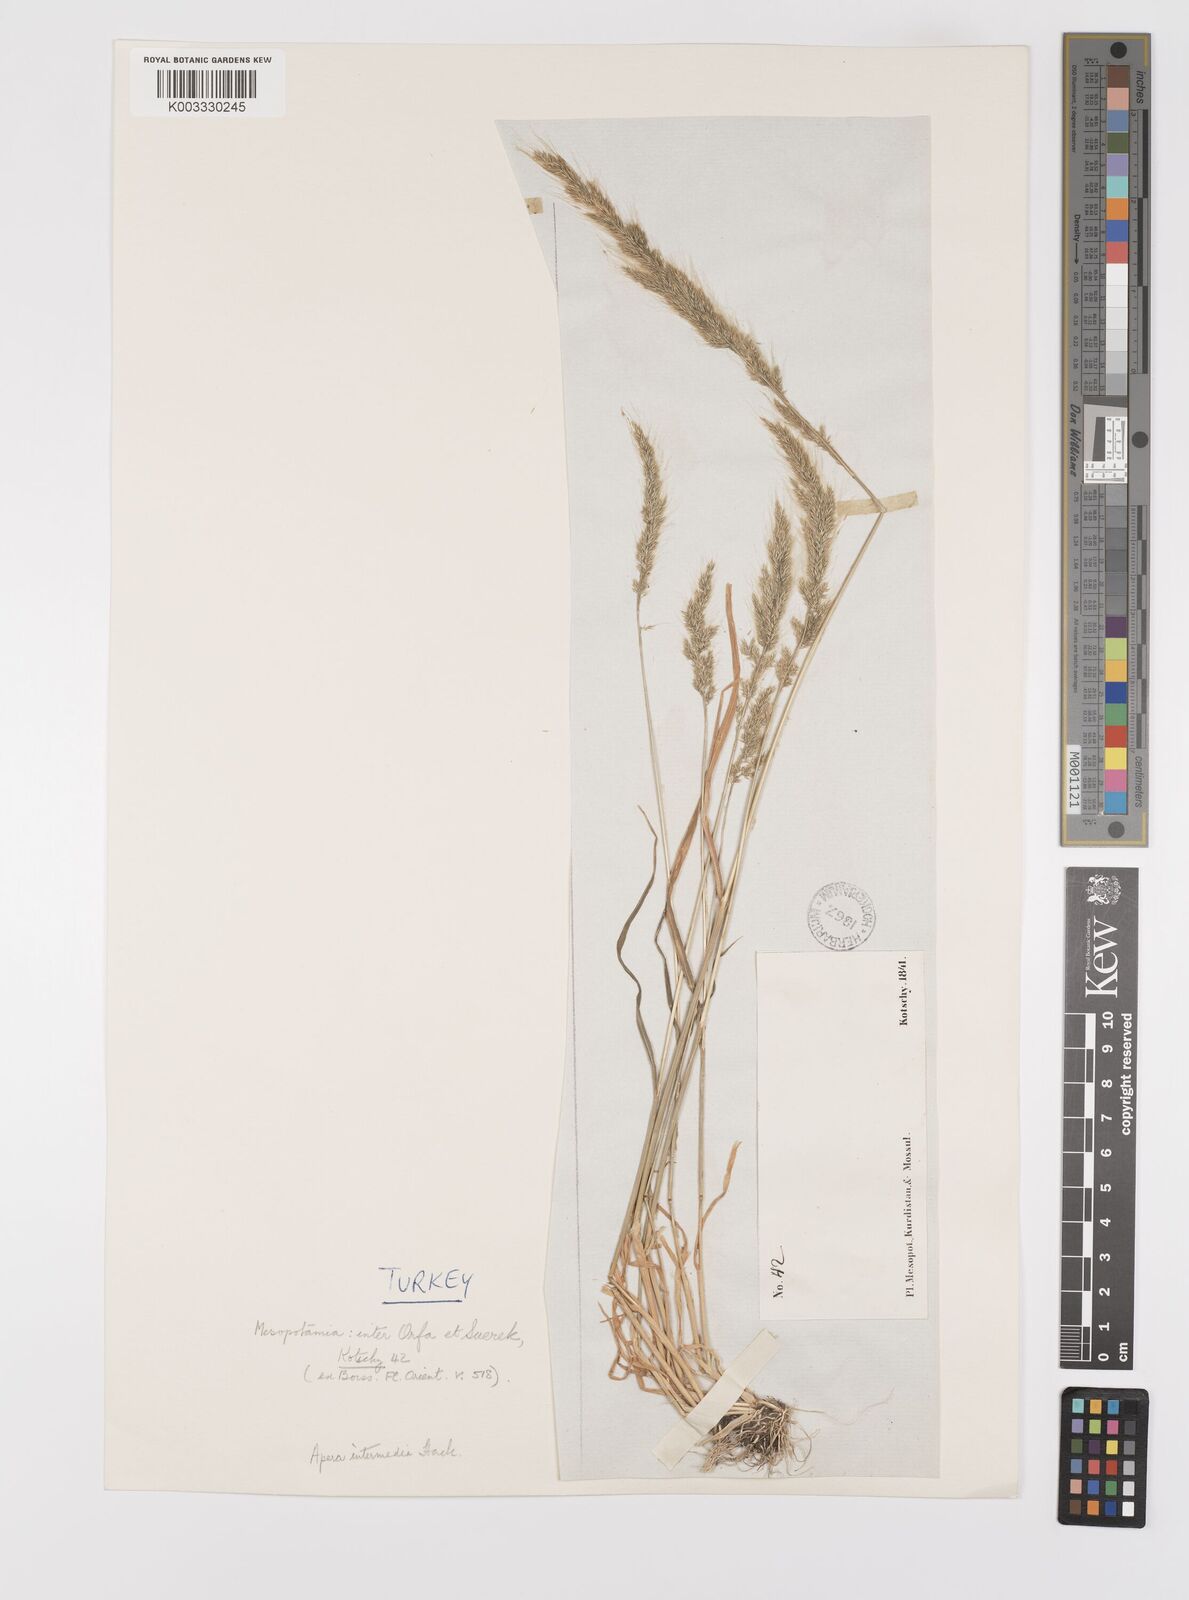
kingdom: Plantae
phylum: Tracheophyta
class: Liliopsida
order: Poales
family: Poaceae
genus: Apera
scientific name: Apera intermedia
